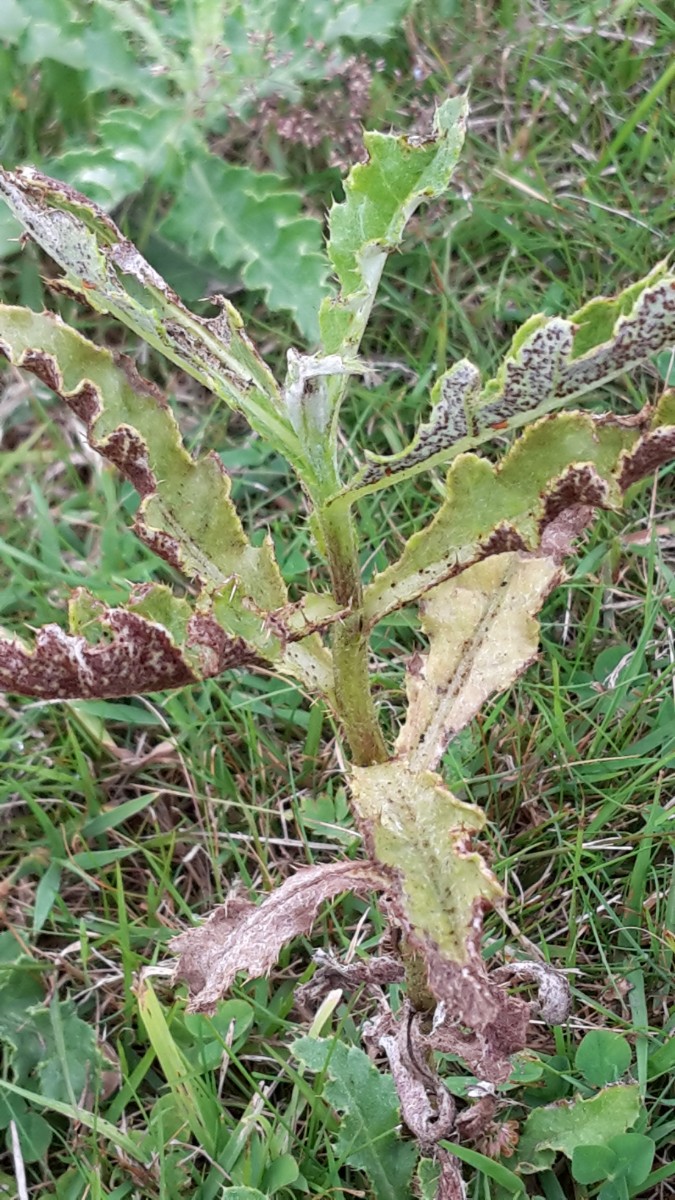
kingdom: Fungi
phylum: Basidiomycota
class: Pucciniomycetes
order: Pucciniales
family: Pucciniaceae
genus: Puccinia
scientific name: Puccinia suaveolens
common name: tidsel-tvecellerust
